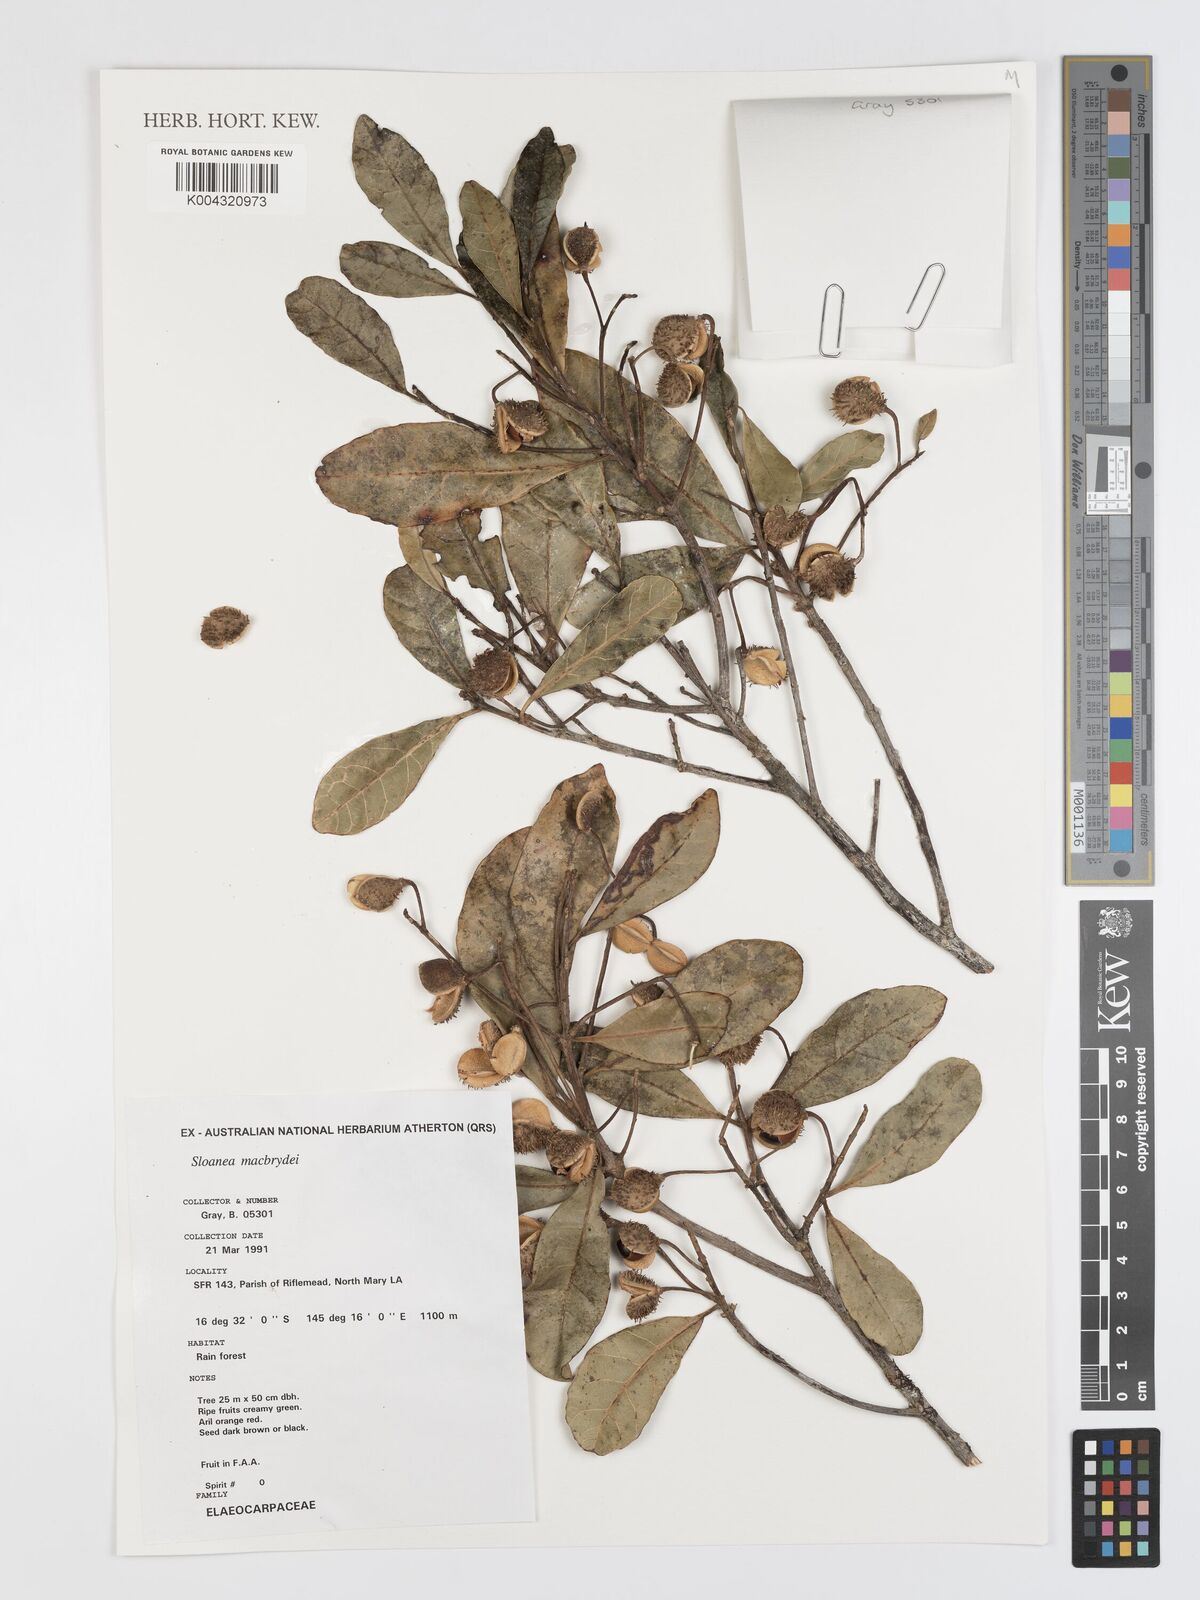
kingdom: Plantae
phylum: Tracheophyta
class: Magnoliopsida
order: Oxalidales
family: Elaeocarpaceae
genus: Sloanea
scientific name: Sloanea macbrydei
